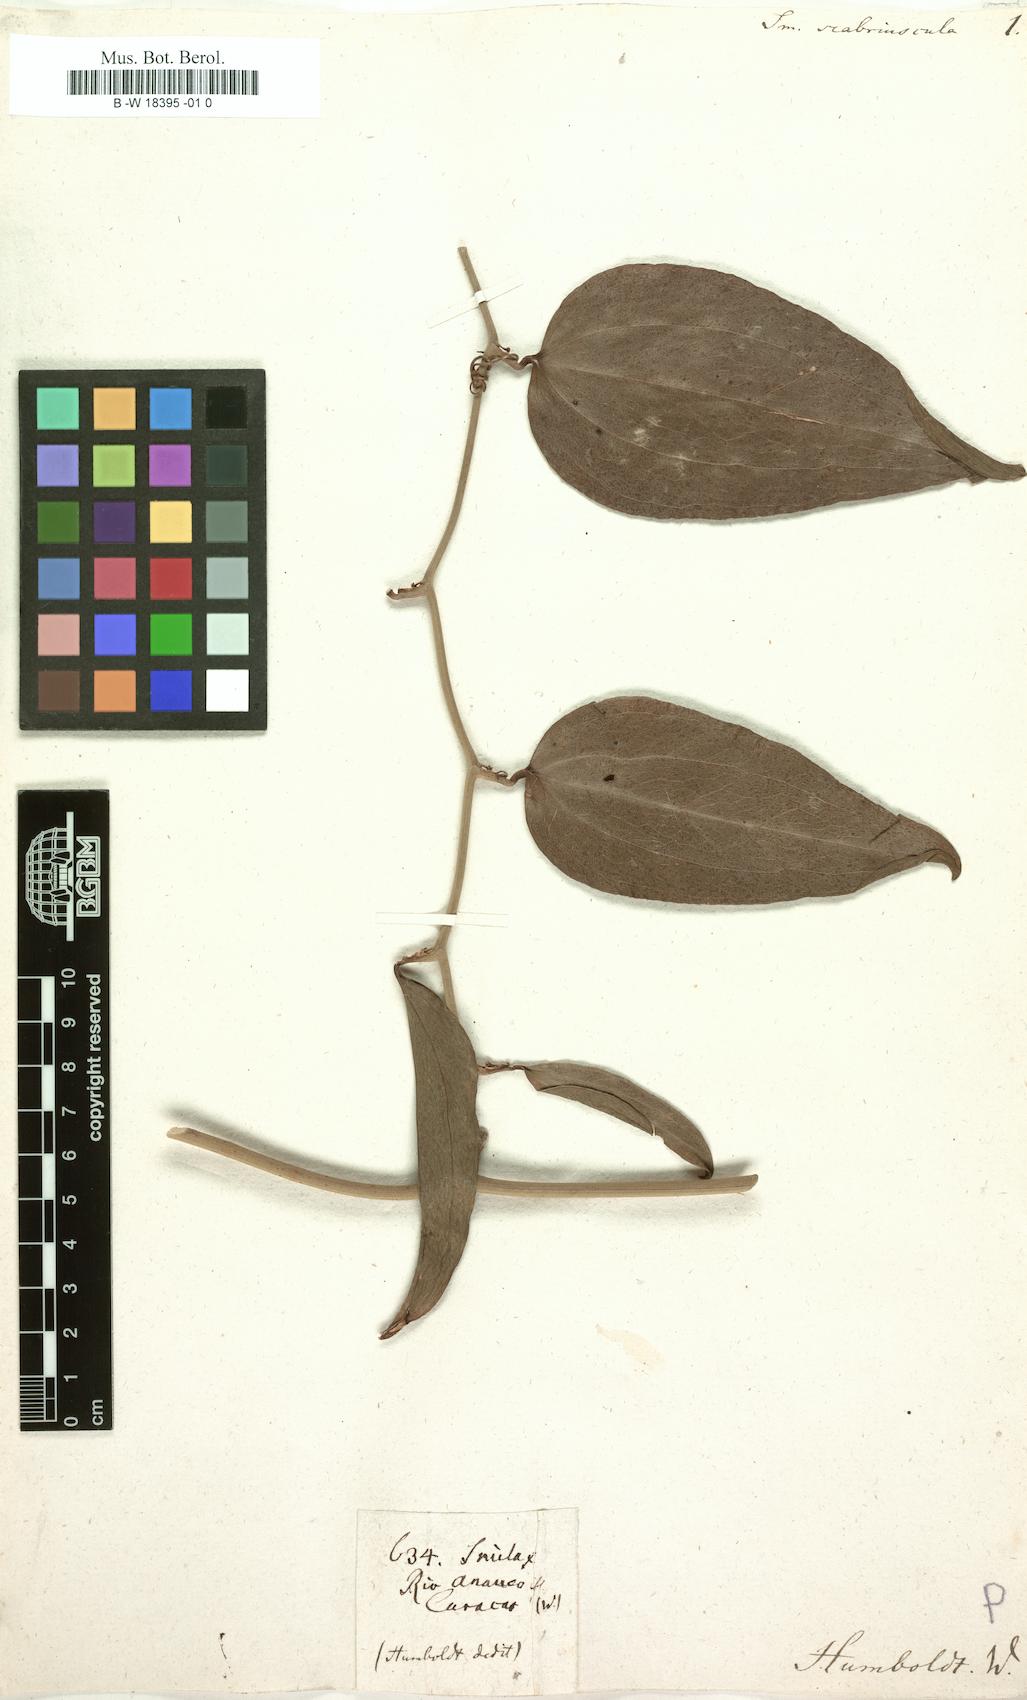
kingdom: Plantae
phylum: Tracheophyta
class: Liliopsida
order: Liliales
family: Smilacaceae
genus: Smilax
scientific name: Smilax spinosa
